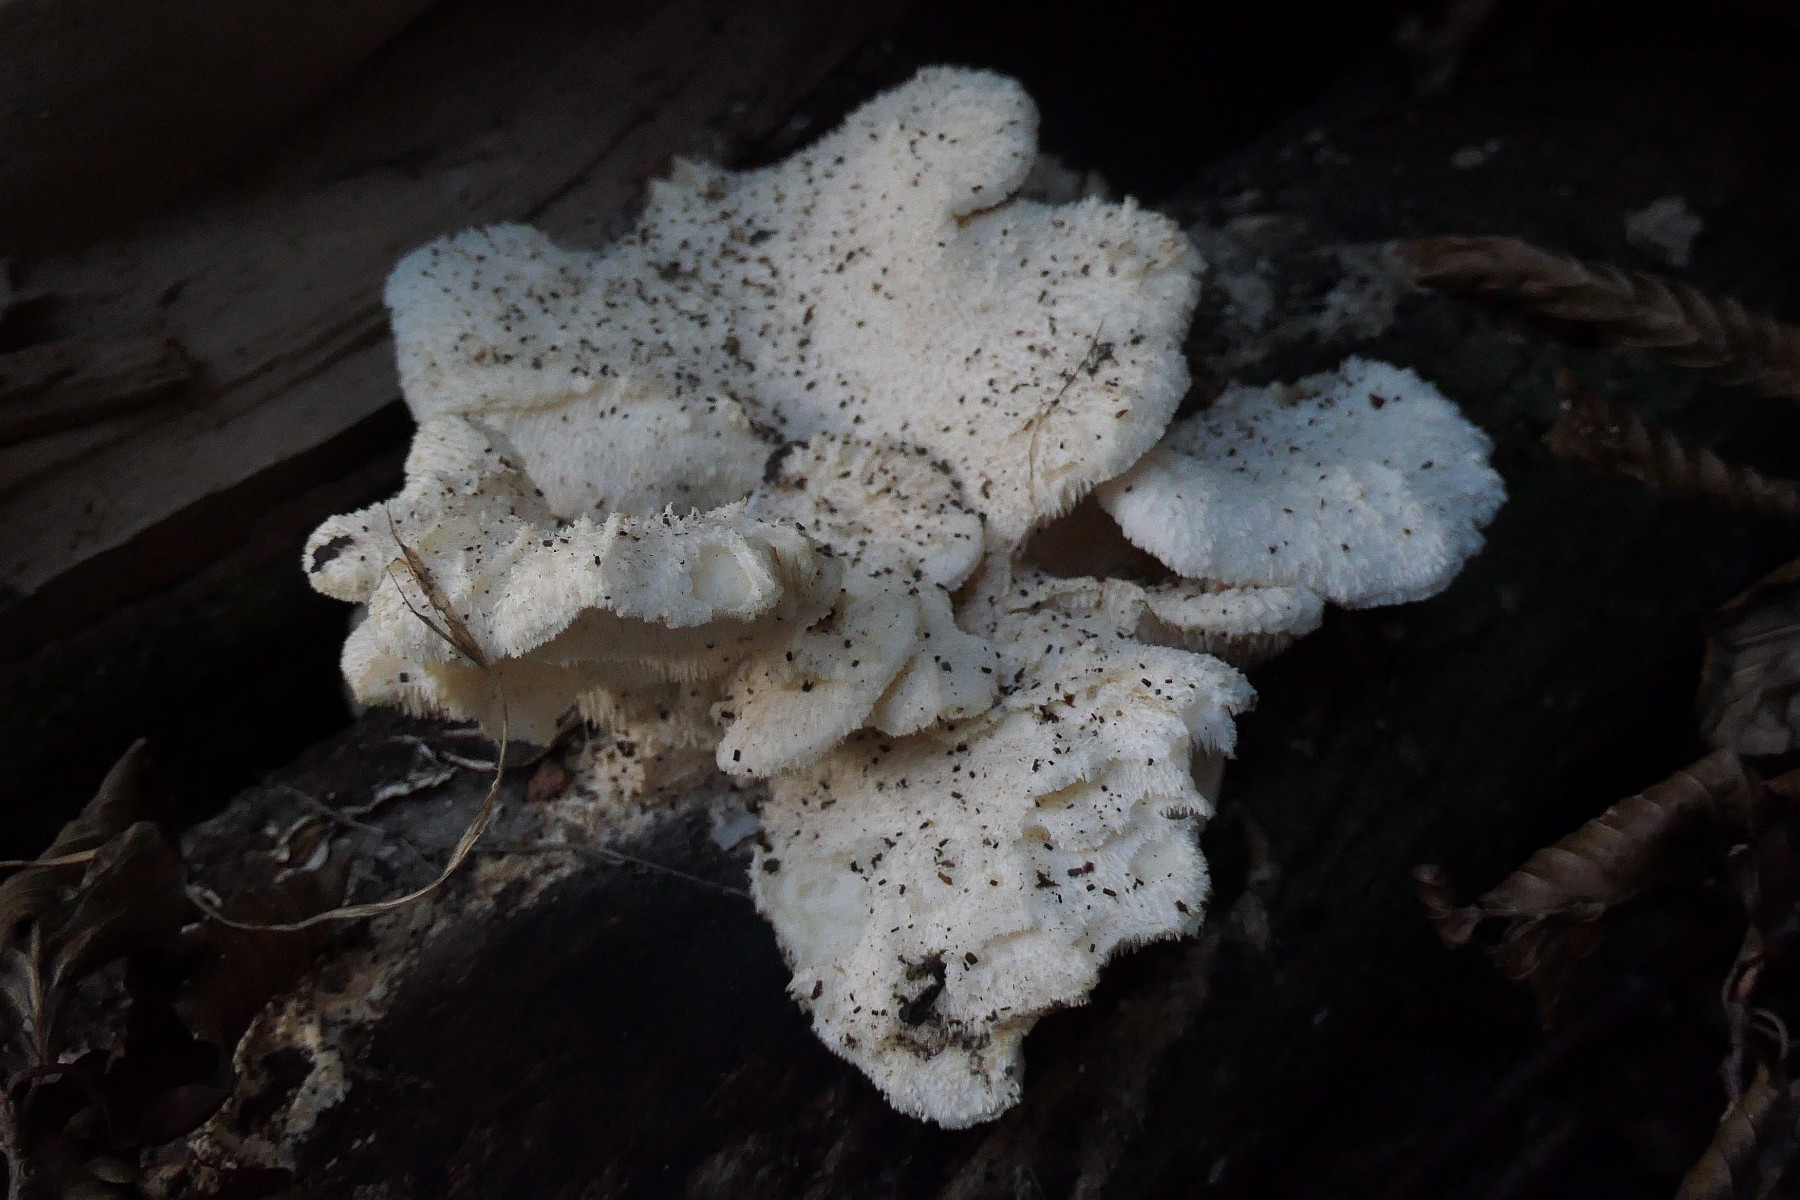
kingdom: Fungi
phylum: Basidiomycota
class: Agaricomycetes
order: Russulales
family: Hericiaceae
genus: Hericium
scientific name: Hericium cirrhatum
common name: børstepigsvamp
